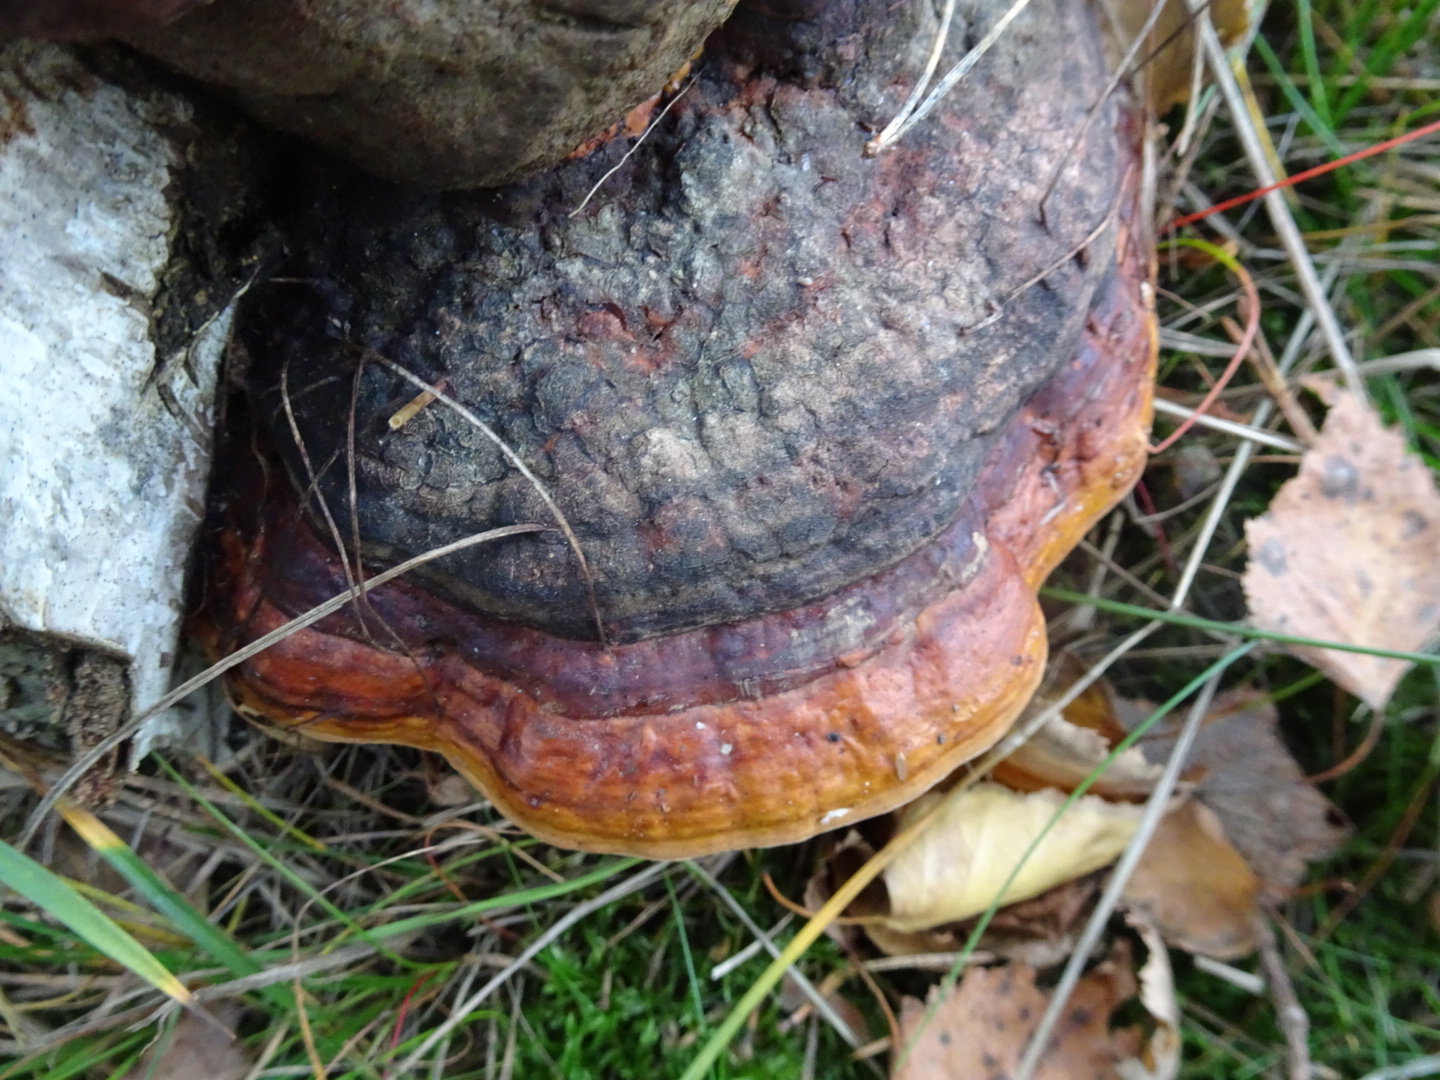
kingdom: Fungi
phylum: Basidiomycota
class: Agaricomycetes
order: Polyporales
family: Fomitopsidaceae
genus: Fomitopsis
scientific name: Fomitopsis pinicola
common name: randbæltet hovporesvamp
